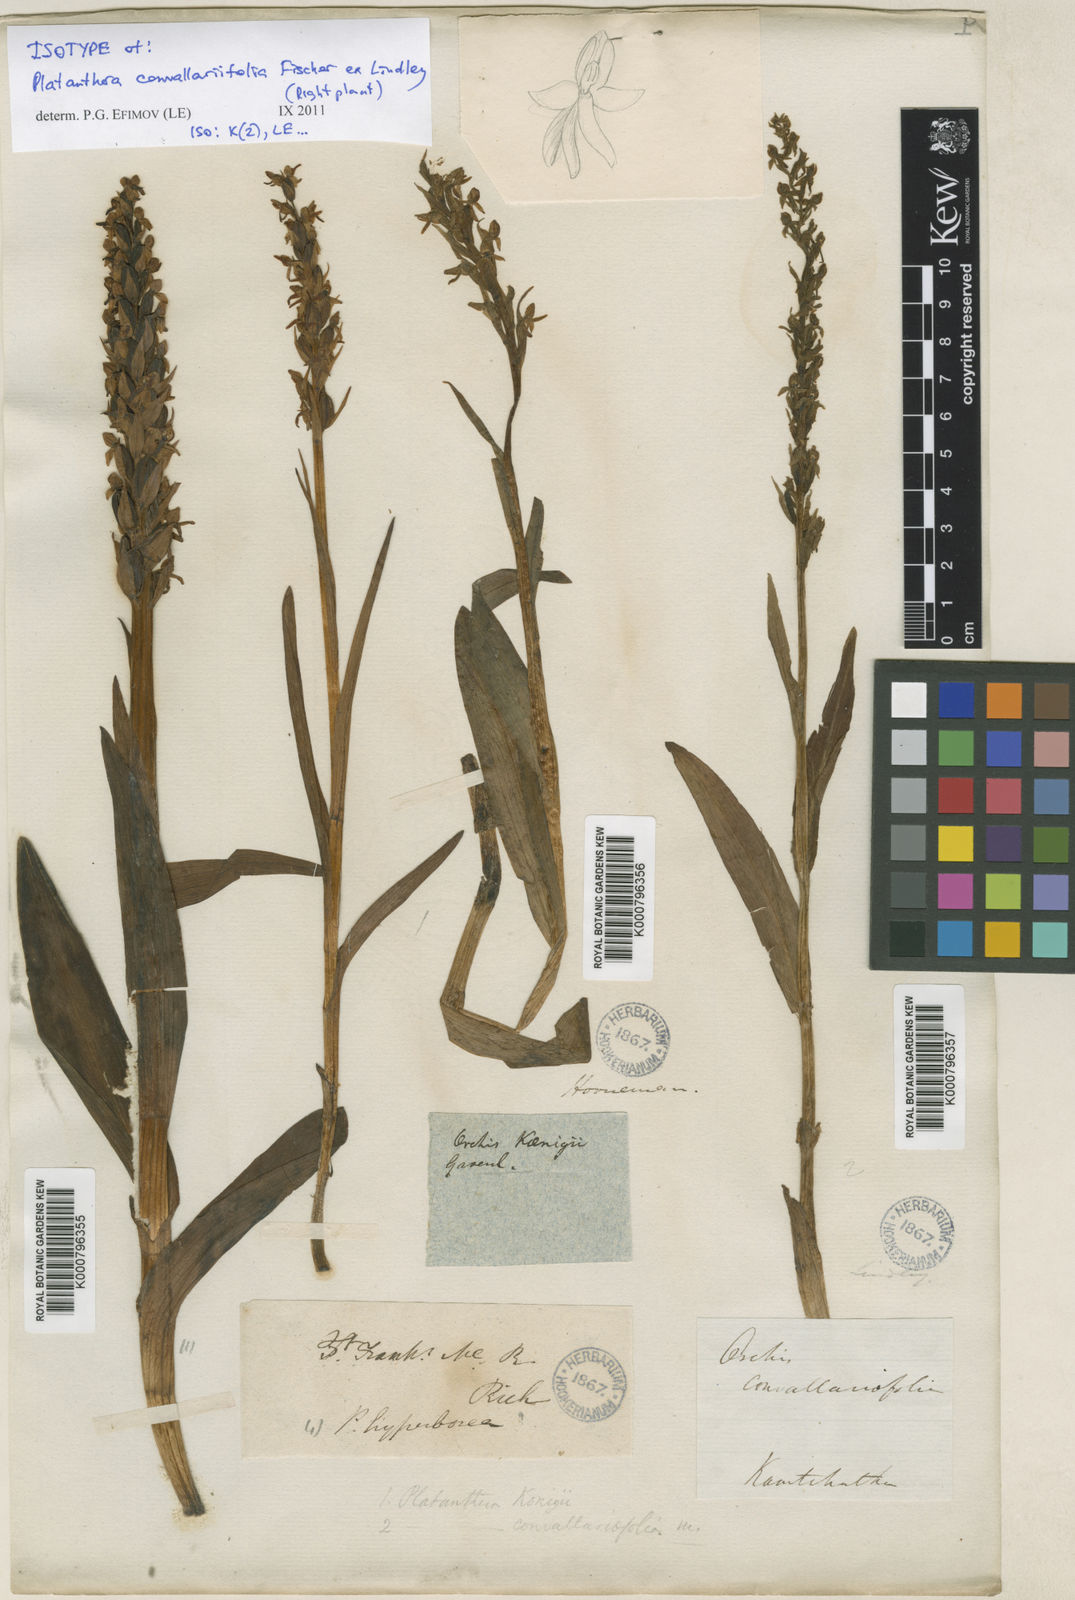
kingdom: Plantae
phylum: Tracheophyta
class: Liliopsida
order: Asparagales
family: Orchidaceae
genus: Platanthera
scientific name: Platanthera convallariifolia
